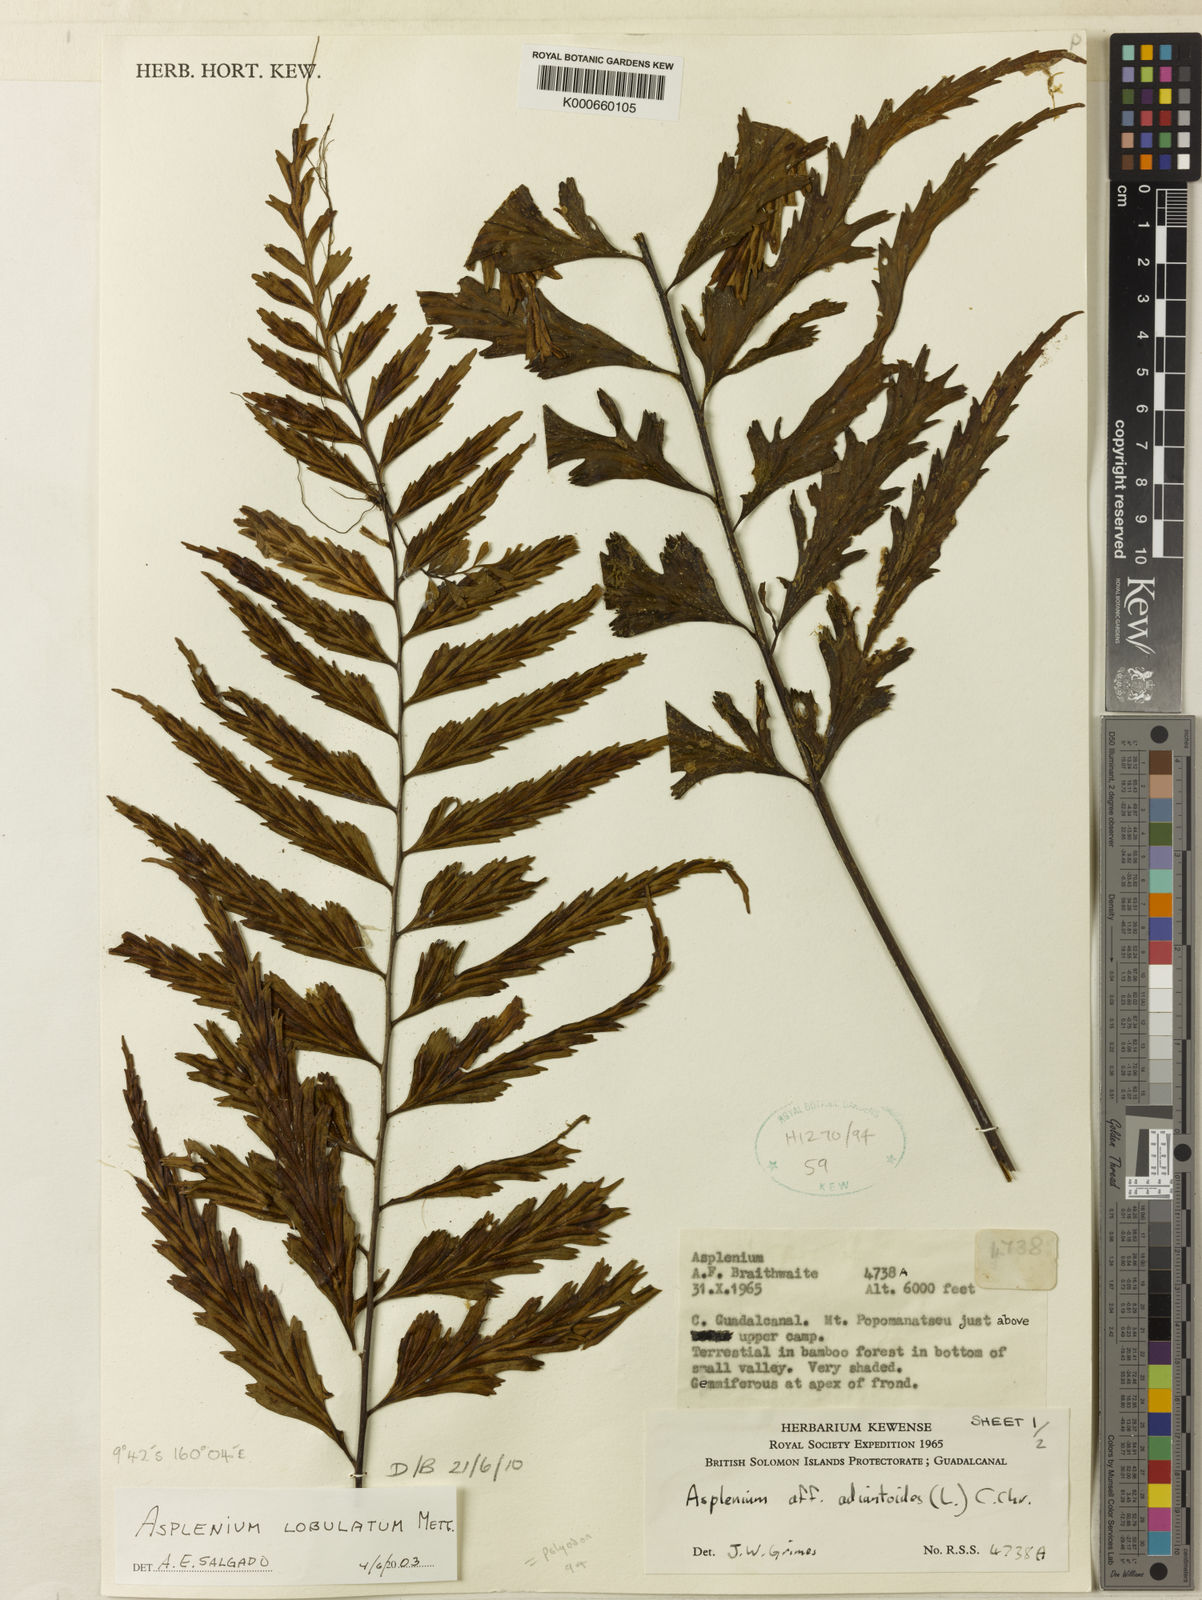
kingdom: Plantae
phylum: Tracheophyta
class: Polypodiopsida
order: Polypodiales
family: Aspleniaceae
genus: Asplenium
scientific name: Asplenium lobulatum
